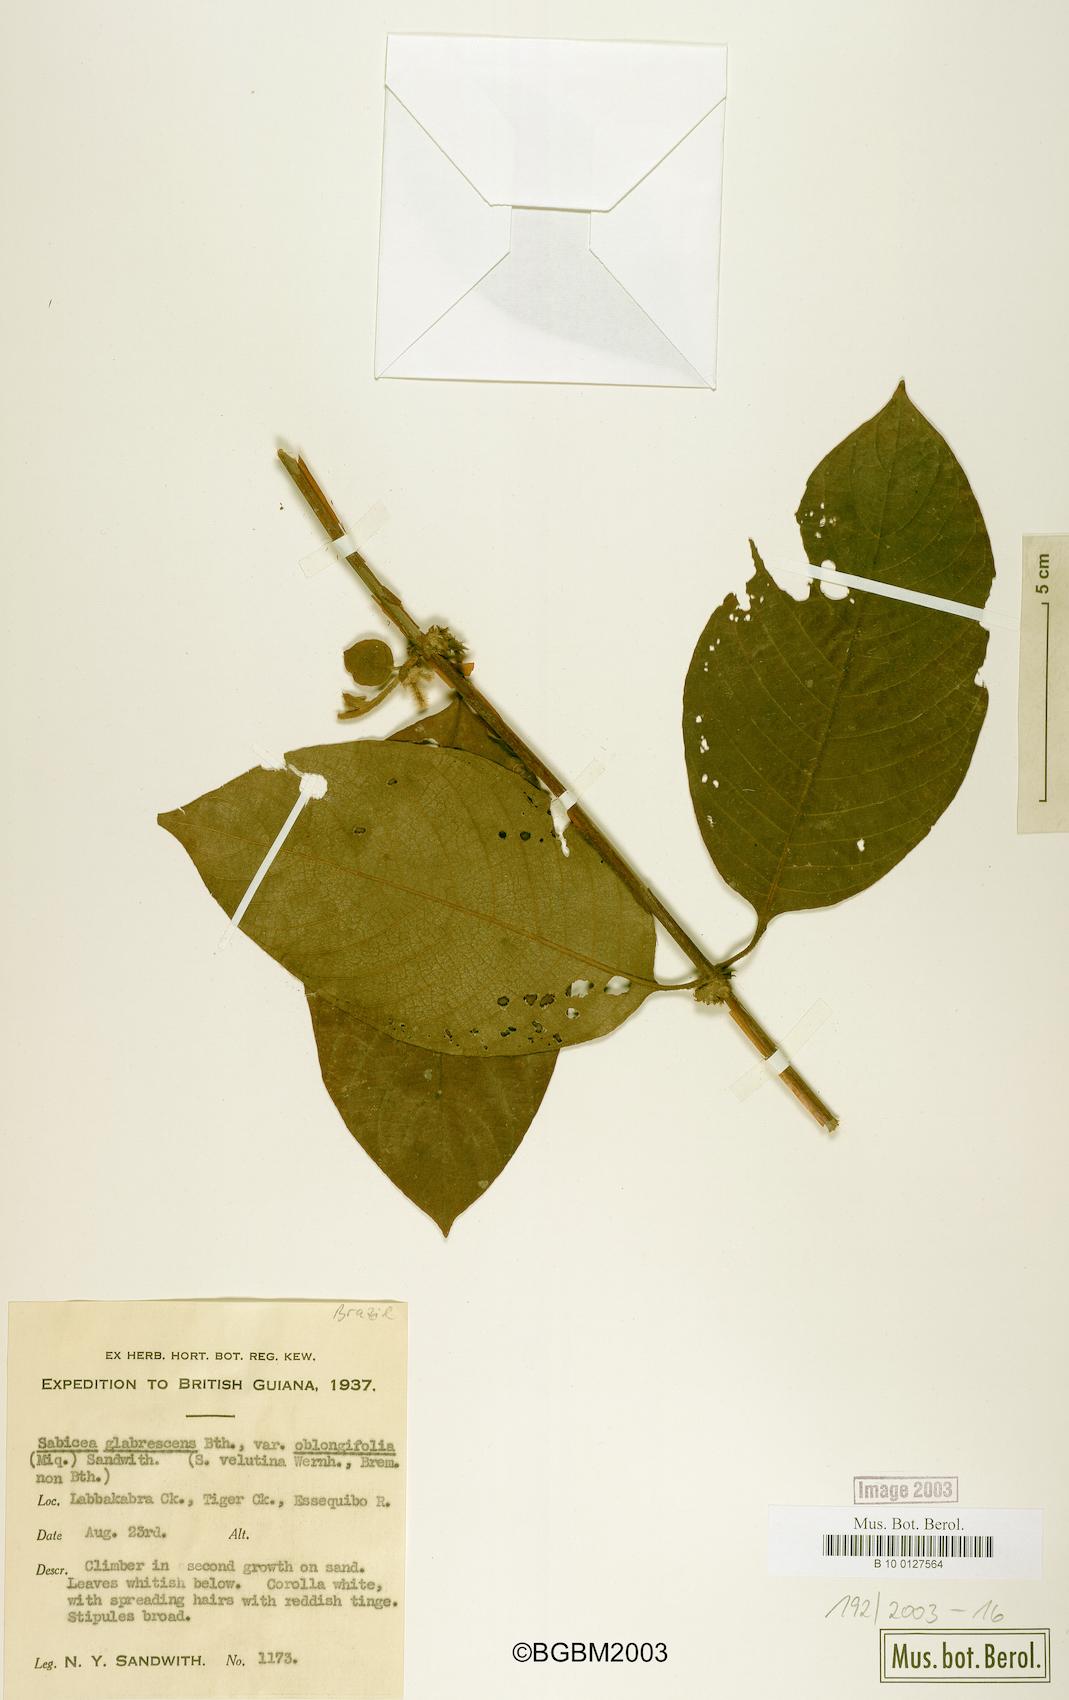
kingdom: Plantae
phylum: Tracheophyta
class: Magnoliopsida
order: Gentianales
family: Rubiaceae
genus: Sabicea
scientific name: Sabicea glabrescens
